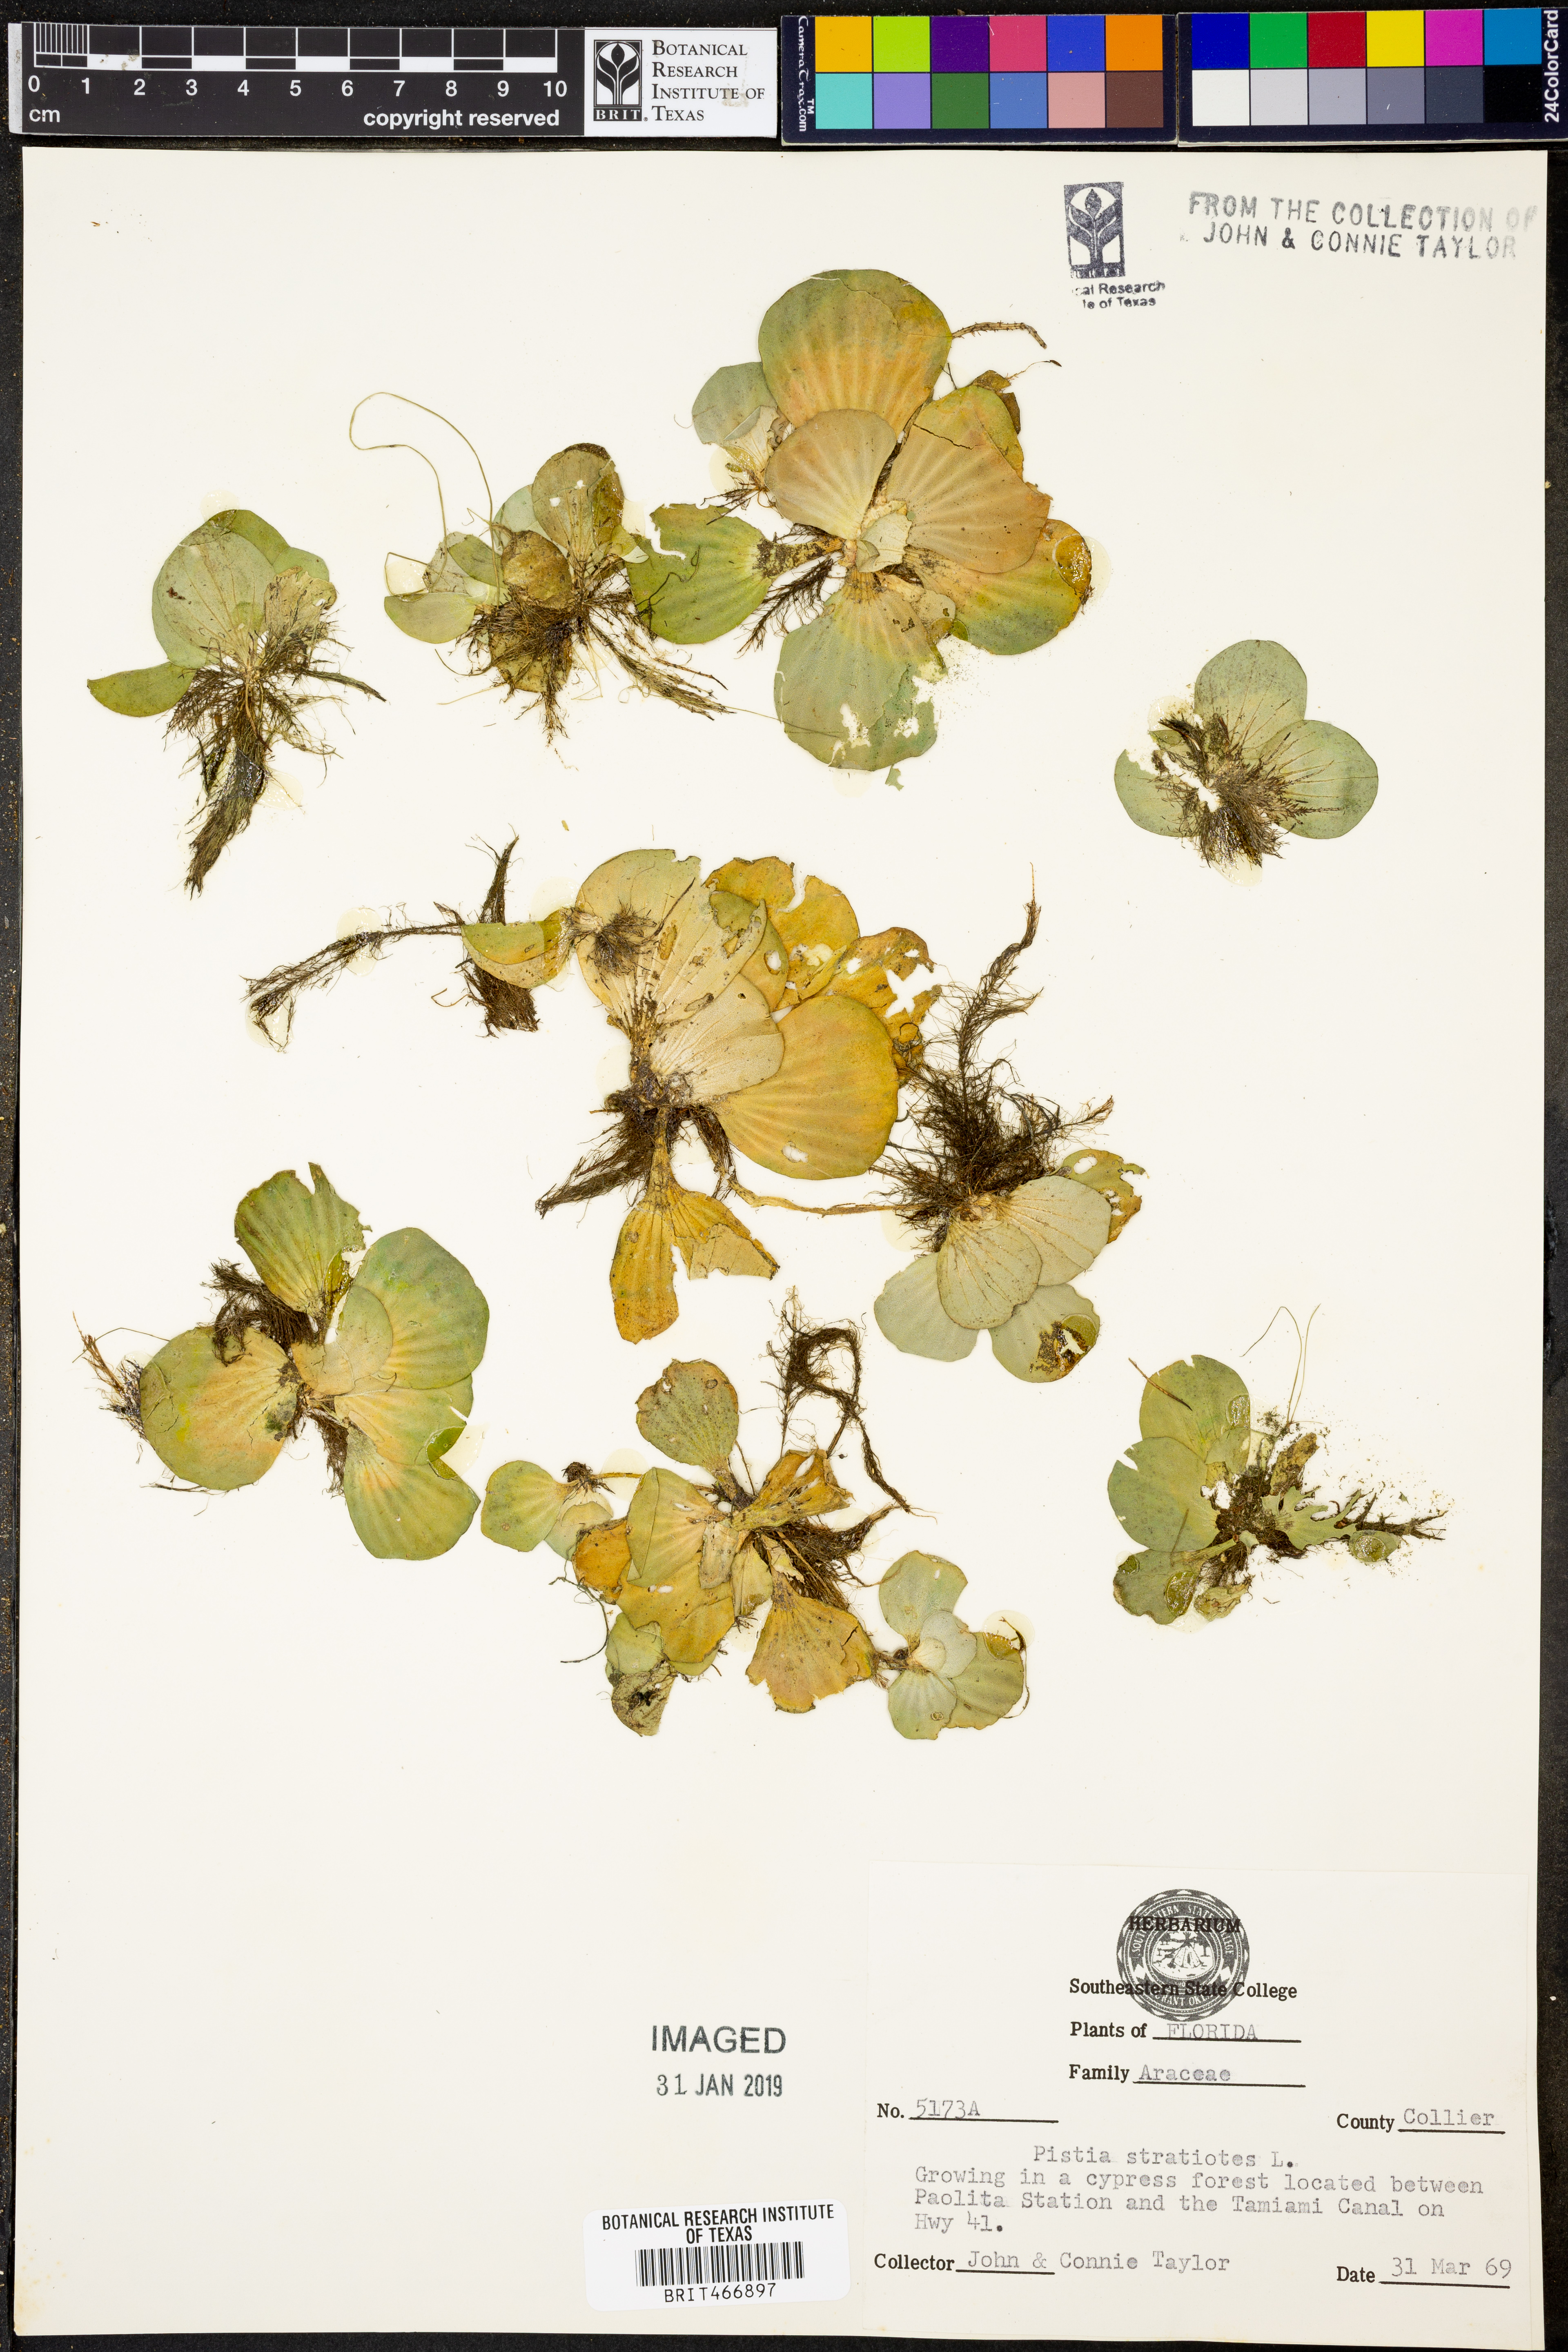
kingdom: Plantae
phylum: Tracheophyta
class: Liliopsida
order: Alismatales
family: Araceae
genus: Pistia
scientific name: Pistia stratiotes
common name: Water lettuce
